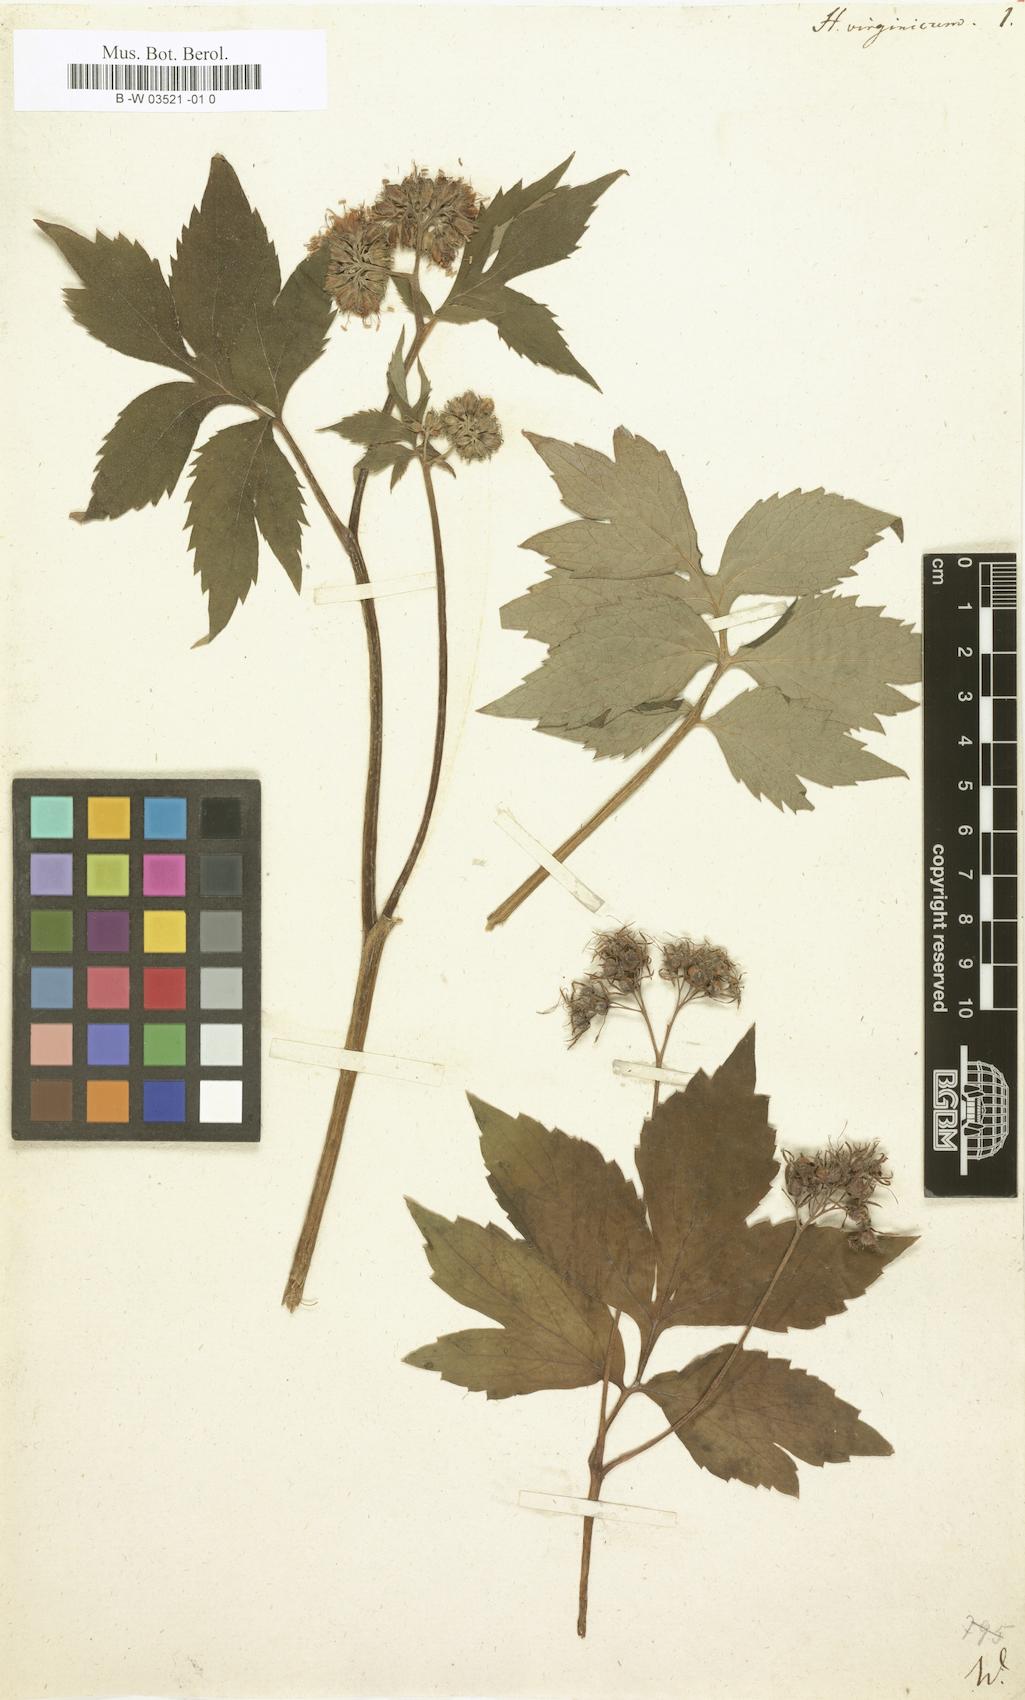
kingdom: Plantae
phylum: Tracheophyta
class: Magnoliopsida
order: Boraginales
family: Hydrophyllaceae
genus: Hydrophyllum
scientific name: Hydrophyllum virginianum
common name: Virginia waterleaf
